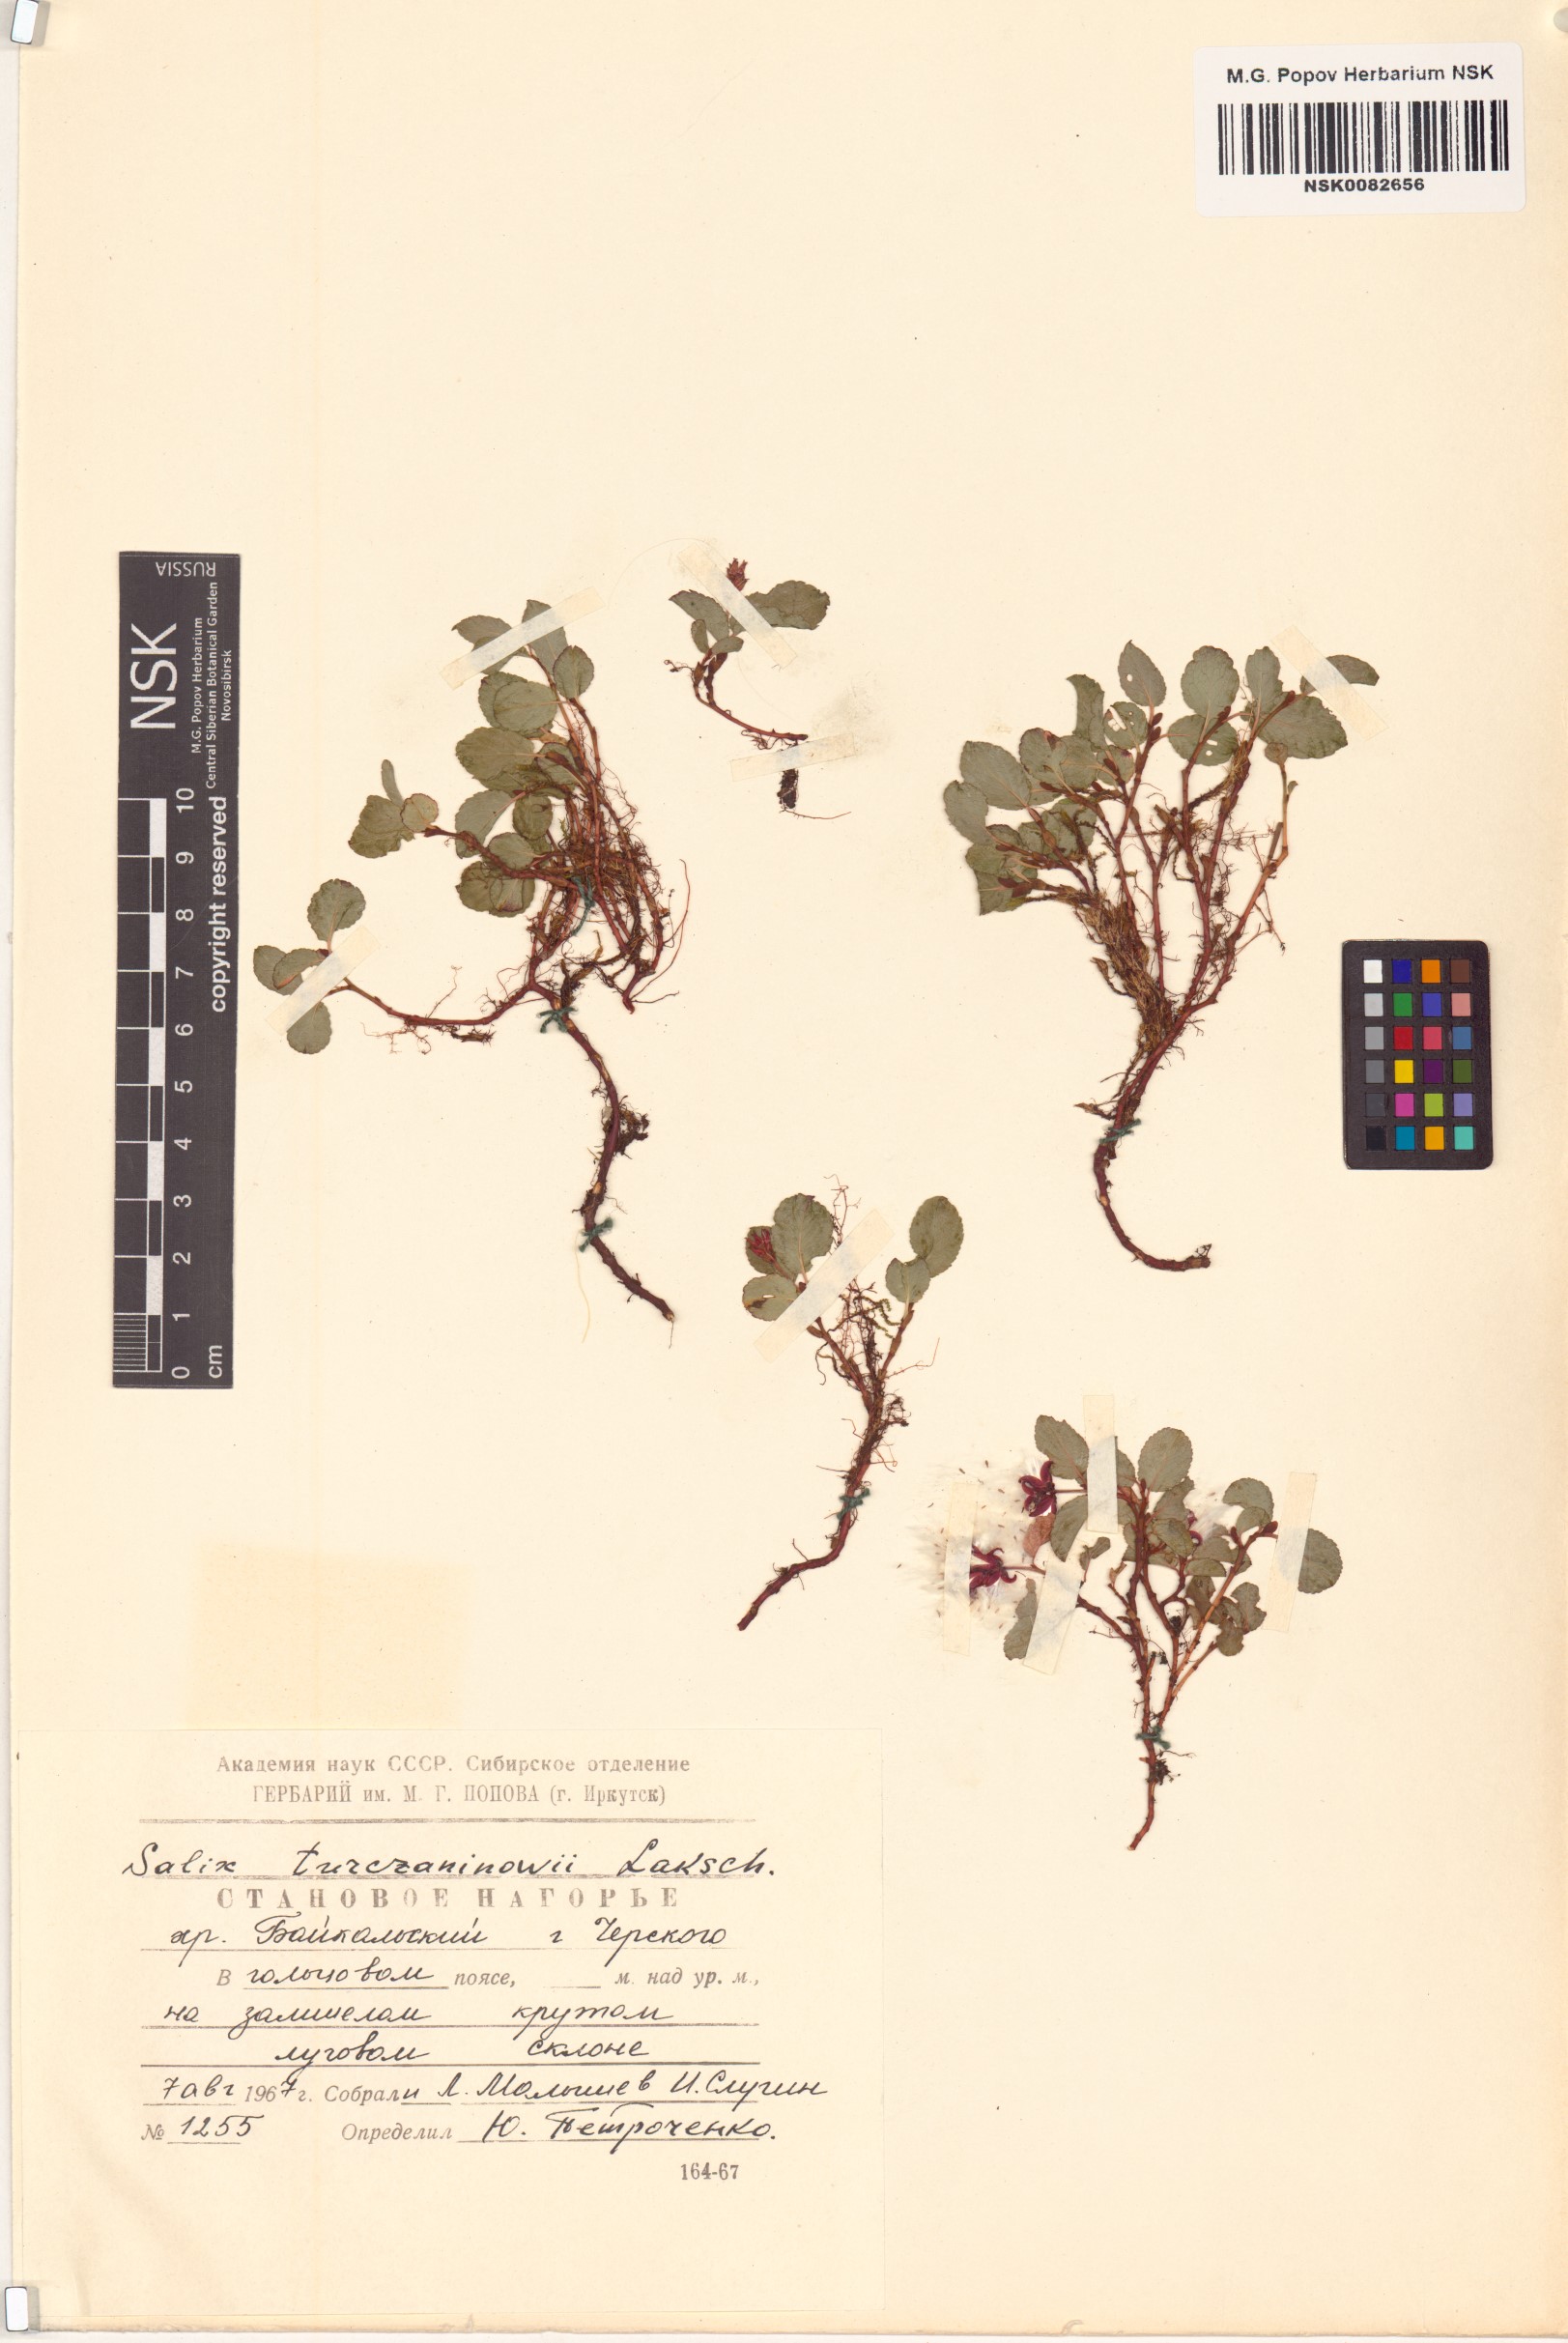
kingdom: Plantae
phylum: Tracheophyta
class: Magnoliopsida
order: Malpighiales
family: Salicaceae
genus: Salix
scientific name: Salix turczaninowii
